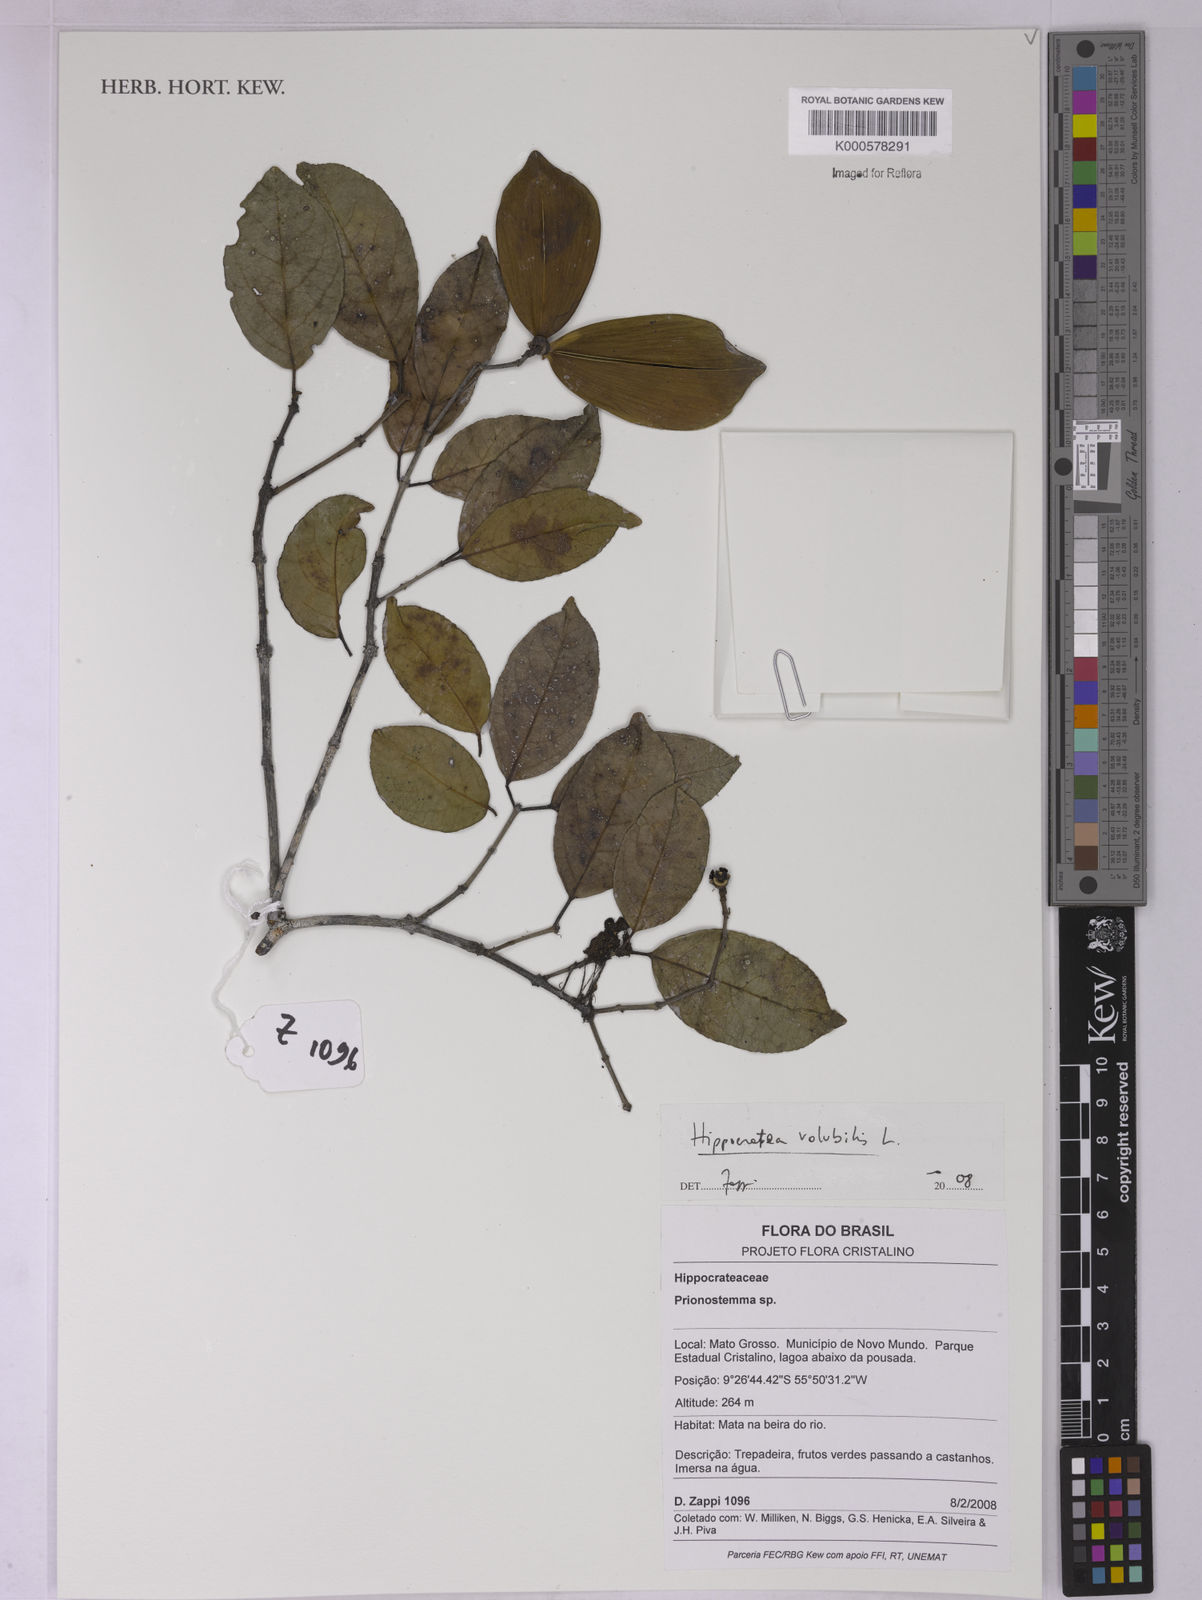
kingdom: Plantae
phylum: Tracheophyta
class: Magnoliopsida
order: Celastrales
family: Celastraceae
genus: Hippocratea
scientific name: Hippocratea volubilis
